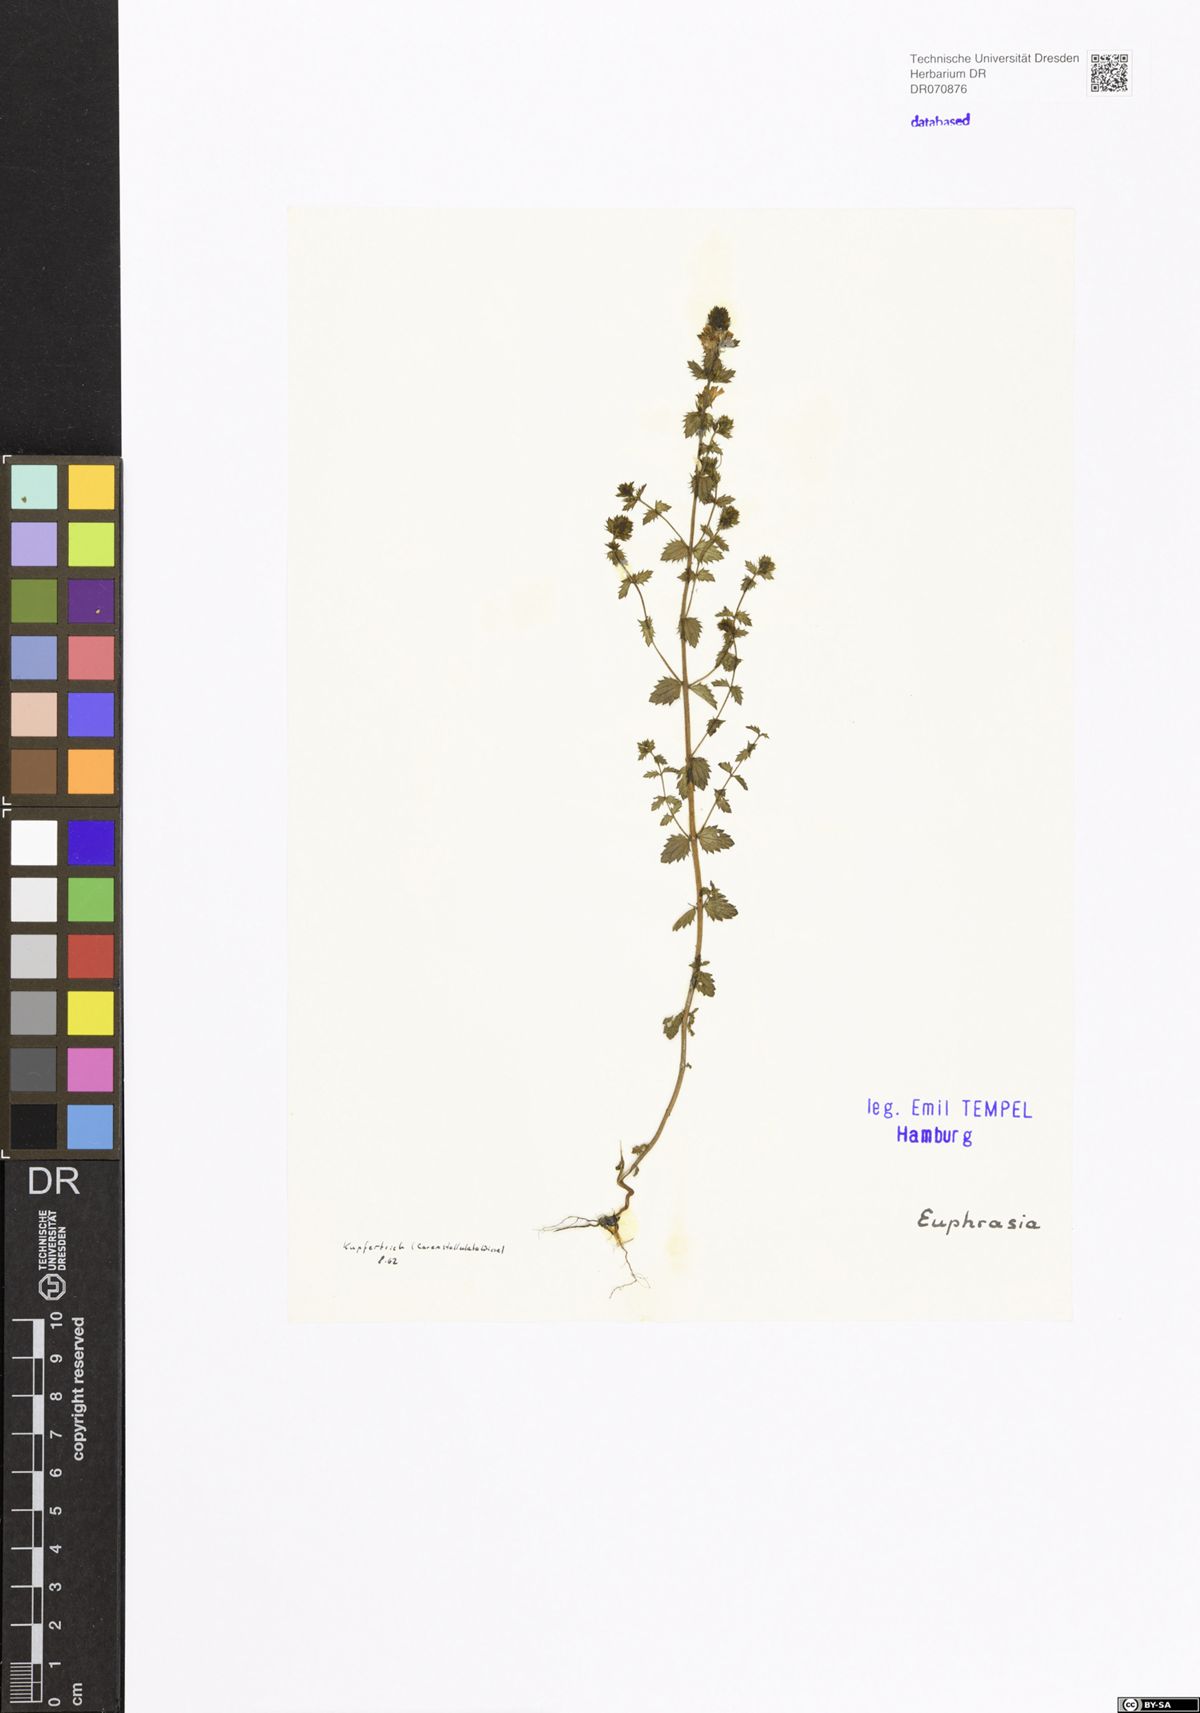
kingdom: Plantae
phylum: Tracheophyta
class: Magnoliopsida
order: Lamiales
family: Orobanchaceae
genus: Euphrasia
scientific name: Euphrasia
